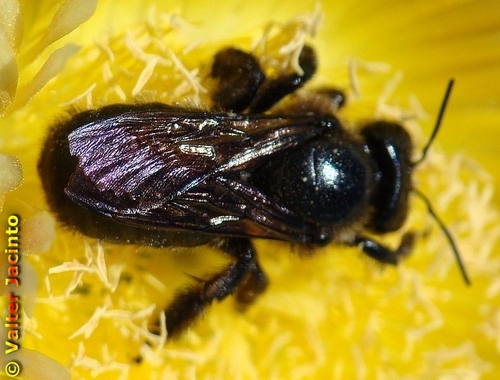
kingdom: Animalia
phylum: Arthropoda
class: Insecta
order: Hymenoptera
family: Apidae
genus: Xylocopa
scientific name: Xylocopa iris
